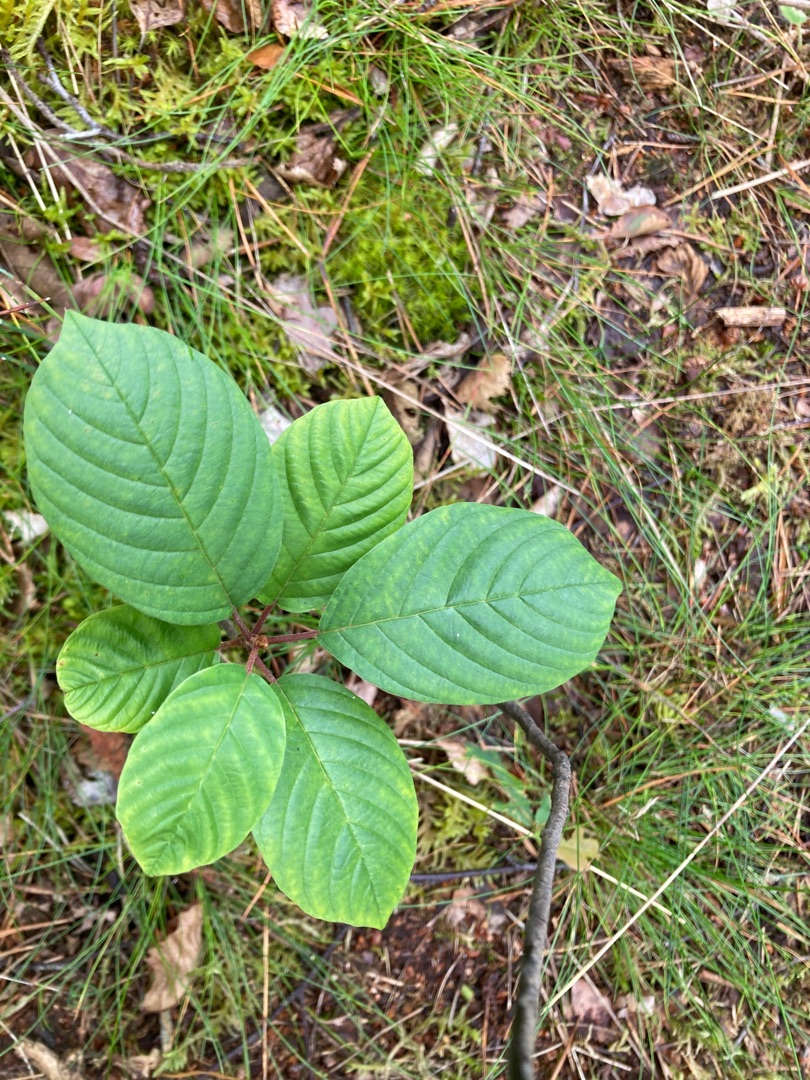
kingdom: Plantae
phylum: Tracheophyta
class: Magnoliopsida
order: Rosales
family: Rhamnaceae
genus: Frangula
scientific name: Frangula alnus
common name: Tørst
